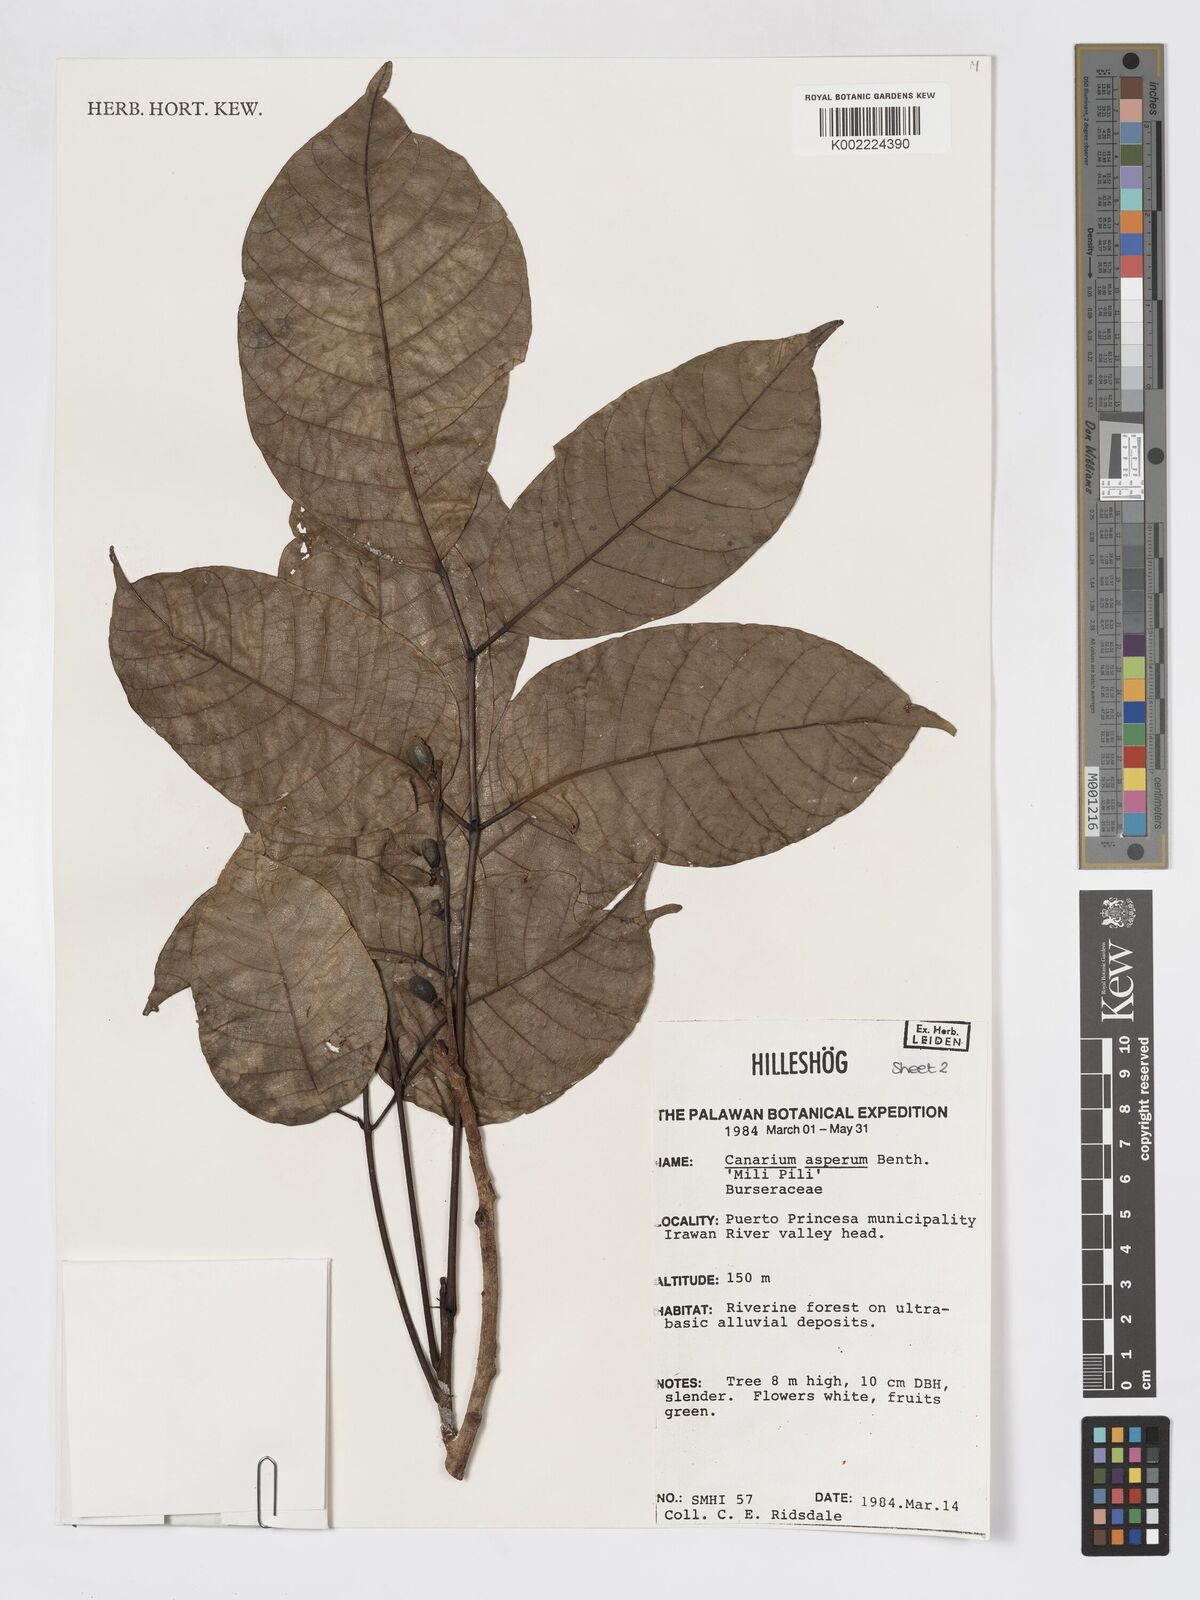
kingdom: Plantae
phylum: Tracheophyta
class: Magnoliopsida
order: Sapindales
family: Burseraceae
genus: Canarium
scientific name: Canarium asperum
